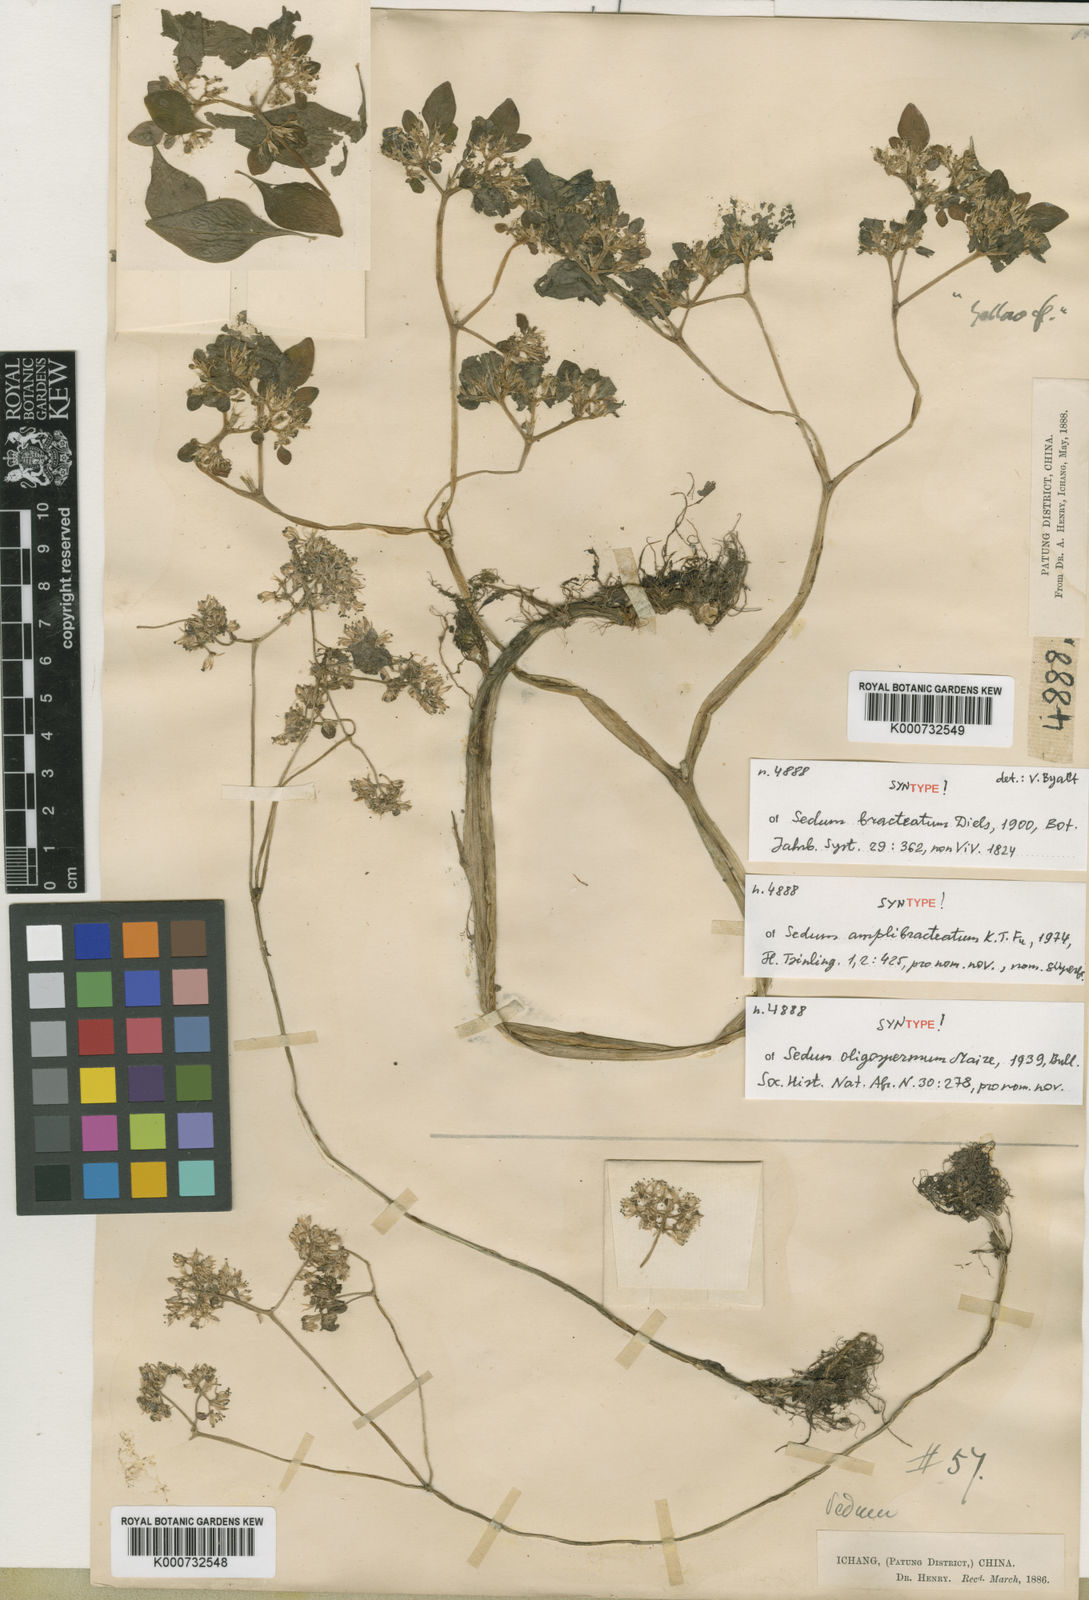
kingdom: Plantae
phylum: Tracheophyta
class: Magnoliopsida
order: Saxifragales
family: Crassulaceae
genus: Sedum
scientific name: Sedum oligospermum
